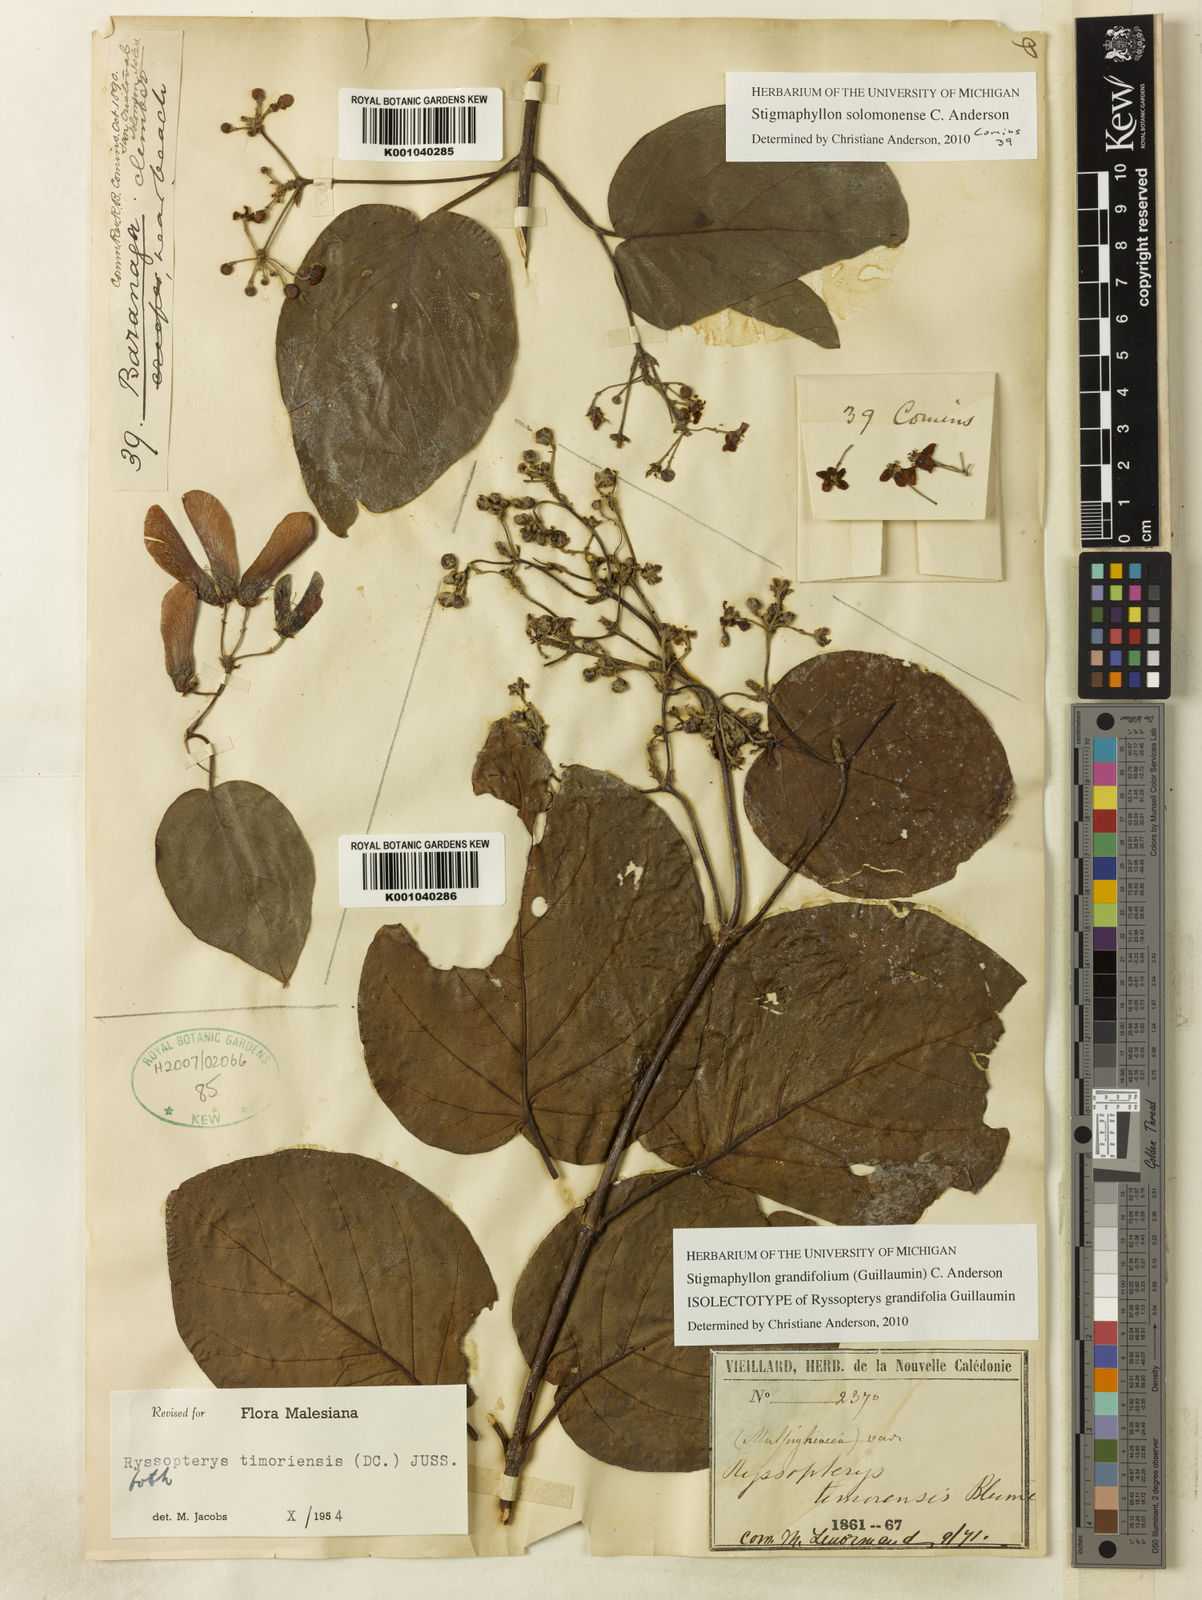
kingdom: Plantae
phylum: Tracheophyta
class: Magnoliopsida
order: Malpighiales
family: Malpighiaceae
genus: Stigmaphyllon
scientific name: Stigmaphyllon grandifolium
